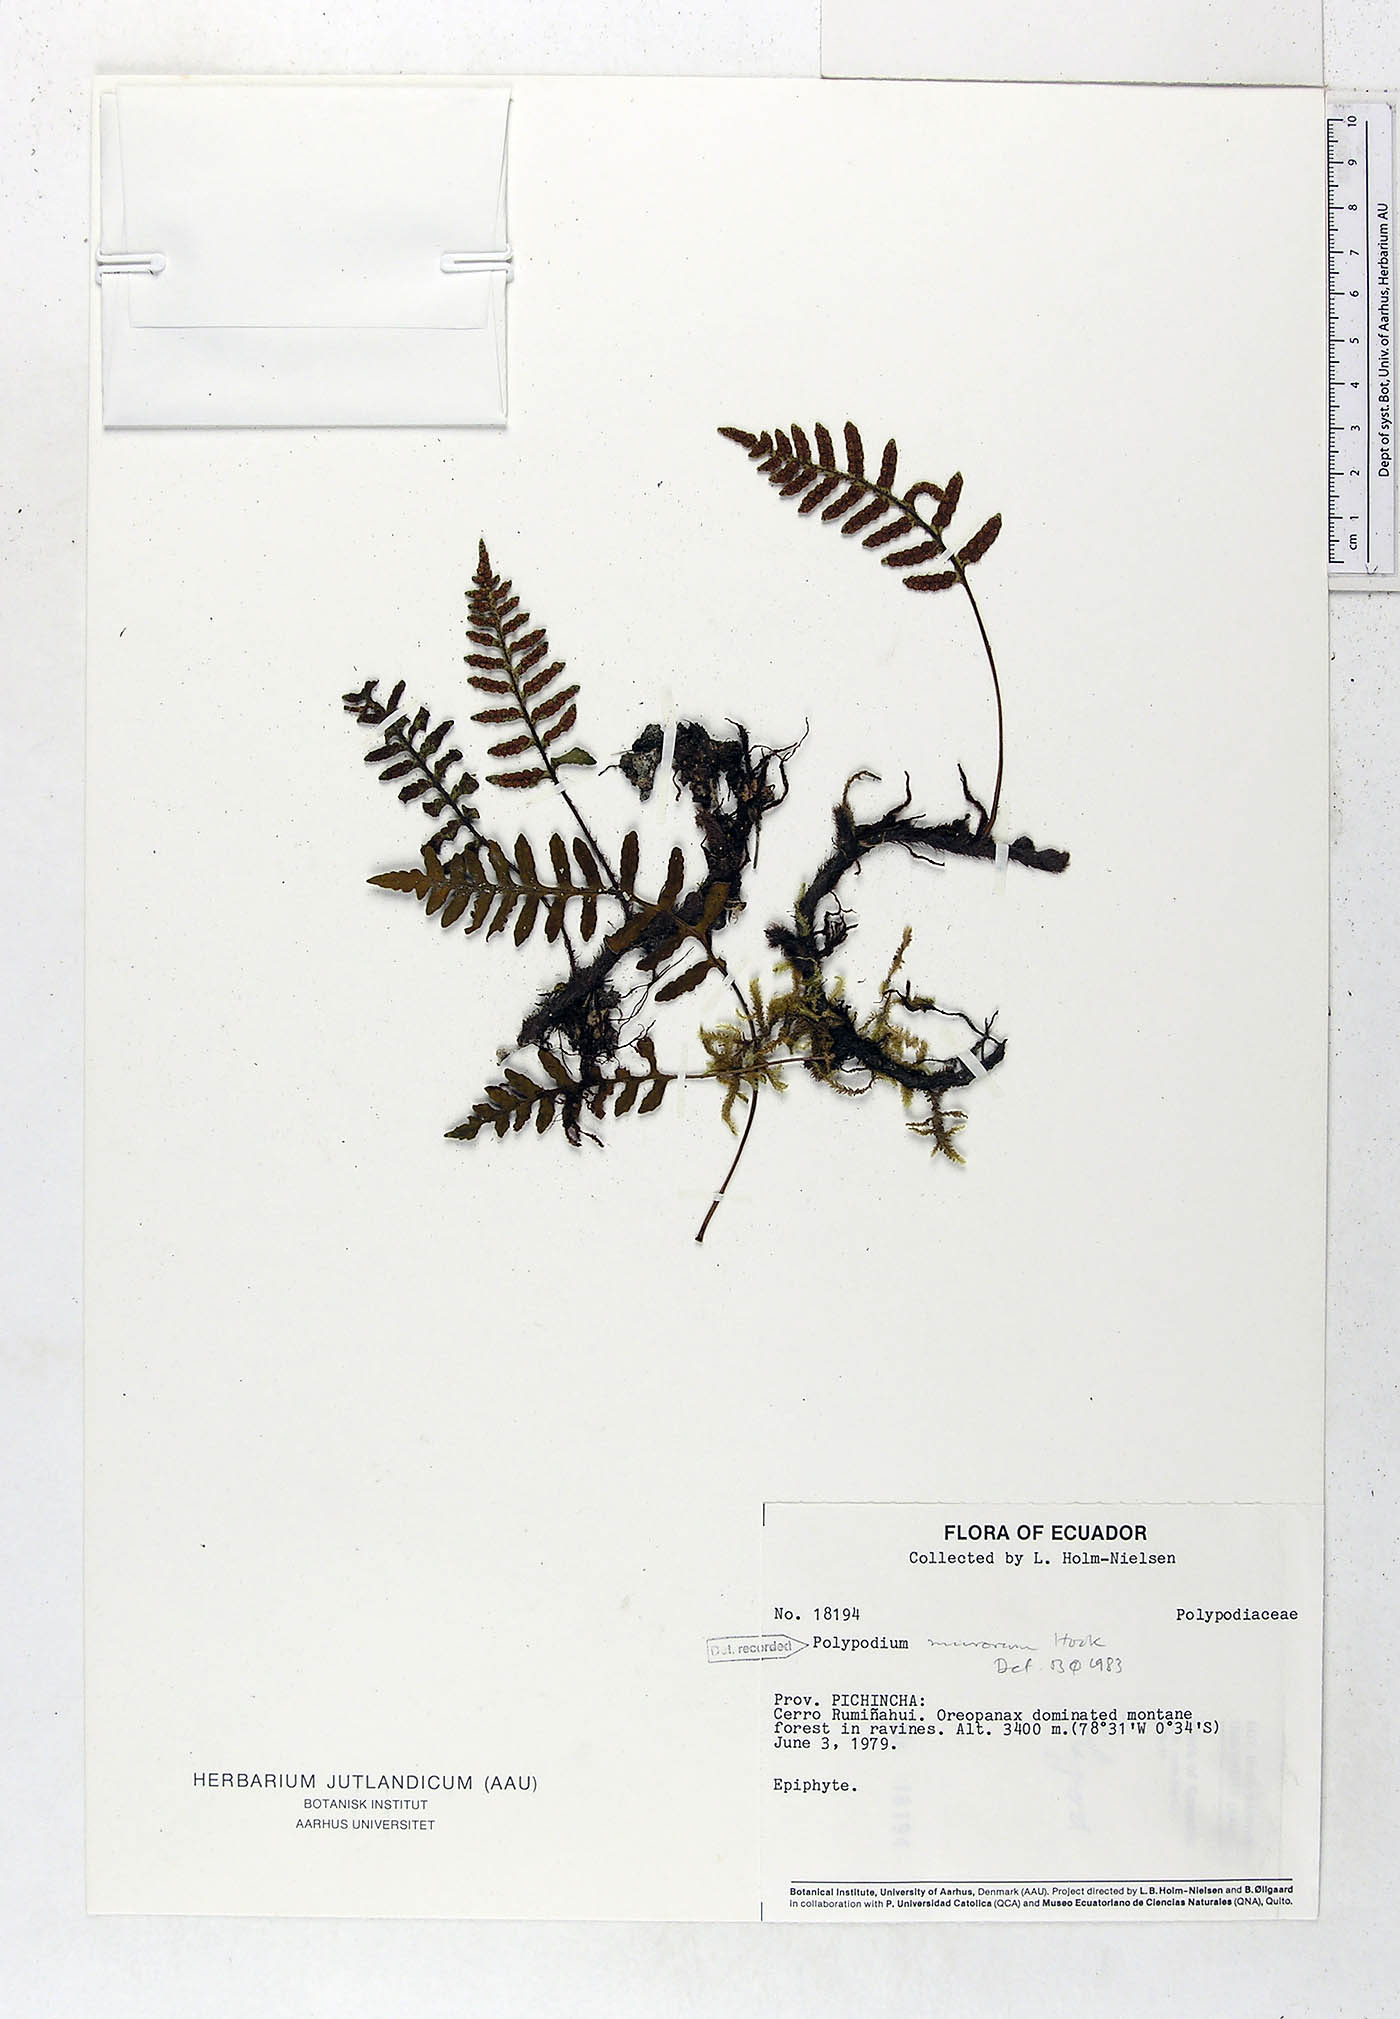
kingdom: Plantae
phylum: Tracheophyta
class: Polypodiopsida
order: Polypodiales
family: Polypodiaceae
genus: Pleopeltis
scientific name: Pleopeltis murora
